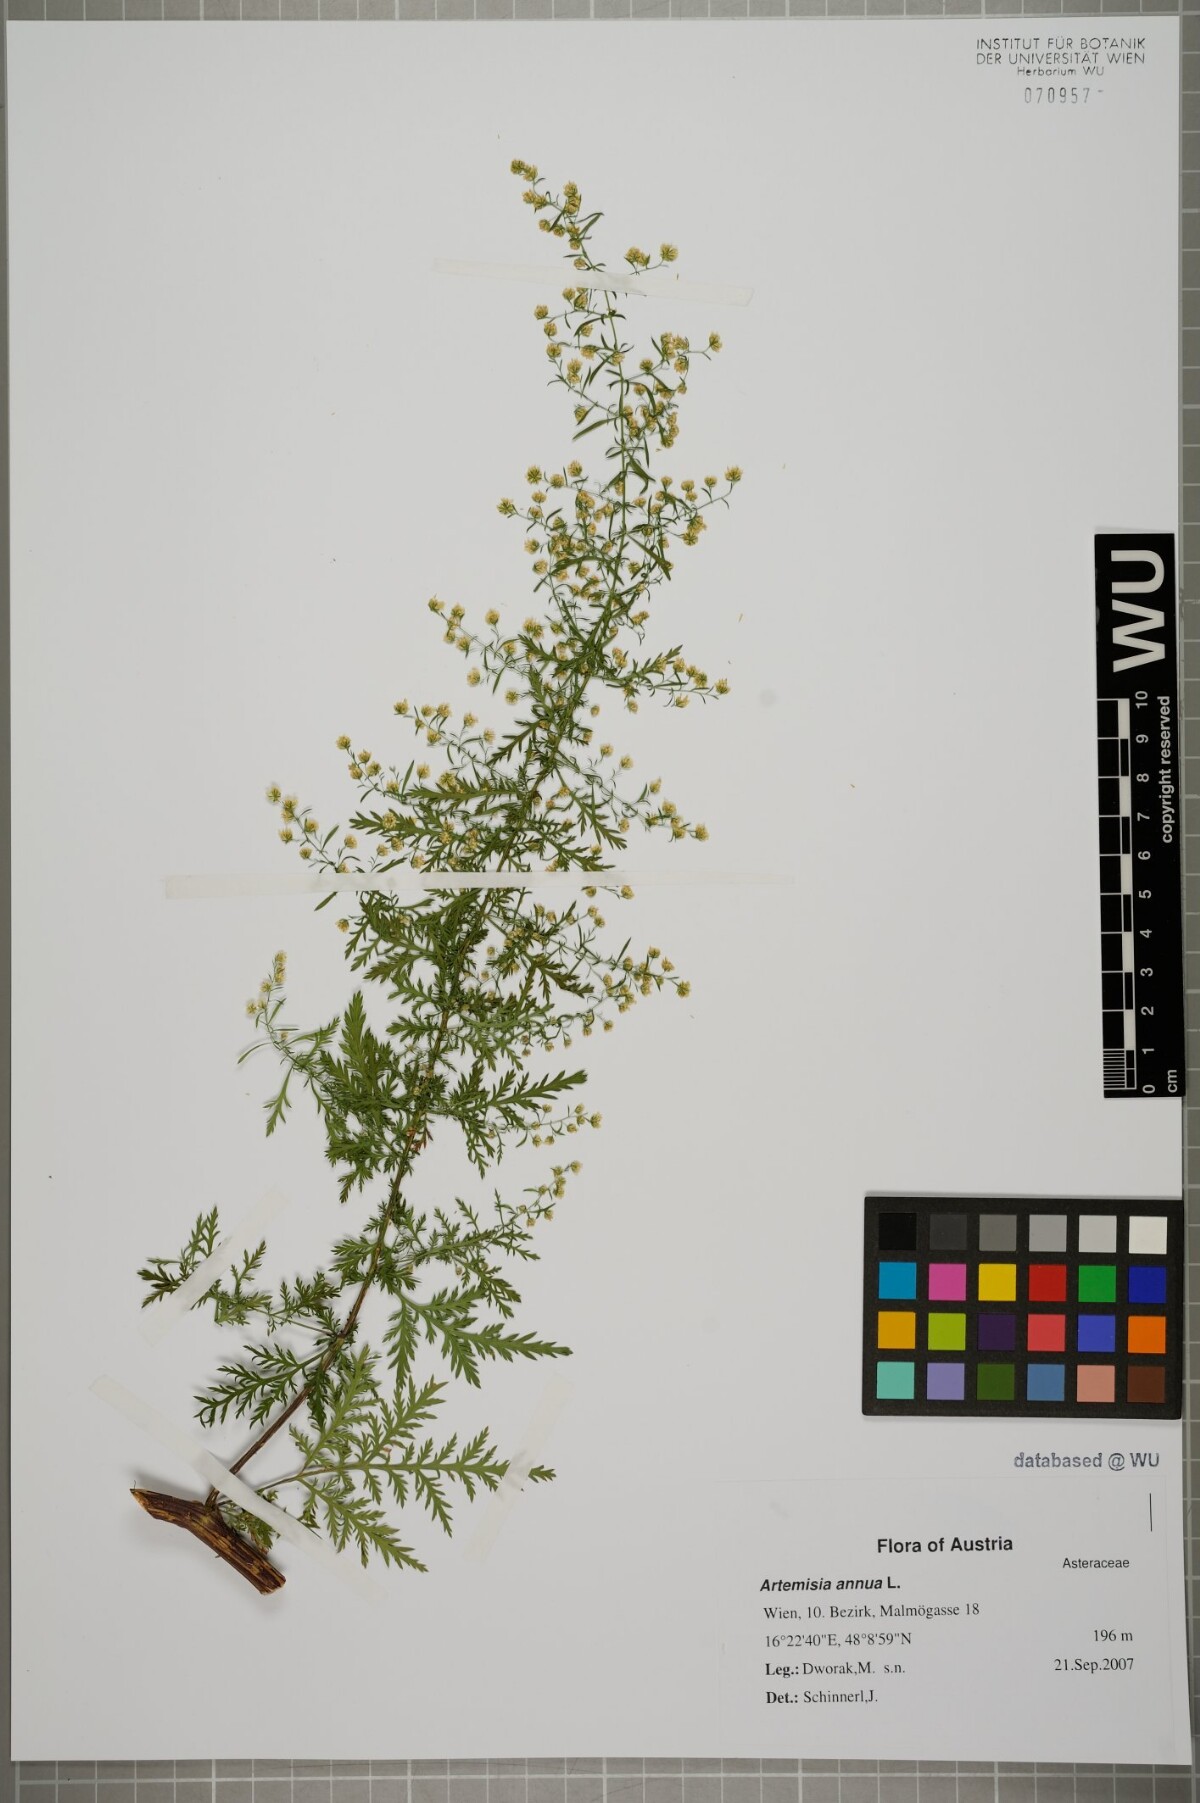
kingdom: Plantae
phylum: Tracheophyta
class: Magnoliopsida
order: Asterales
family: Asteraceae
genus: Artemisia
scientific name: Artemisia annua
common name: Sweet sagewort
